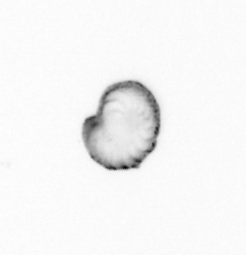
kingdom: Chromista
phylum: Ochrophyta
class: Bacillariophyceae
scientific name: Bacillariophyceae
